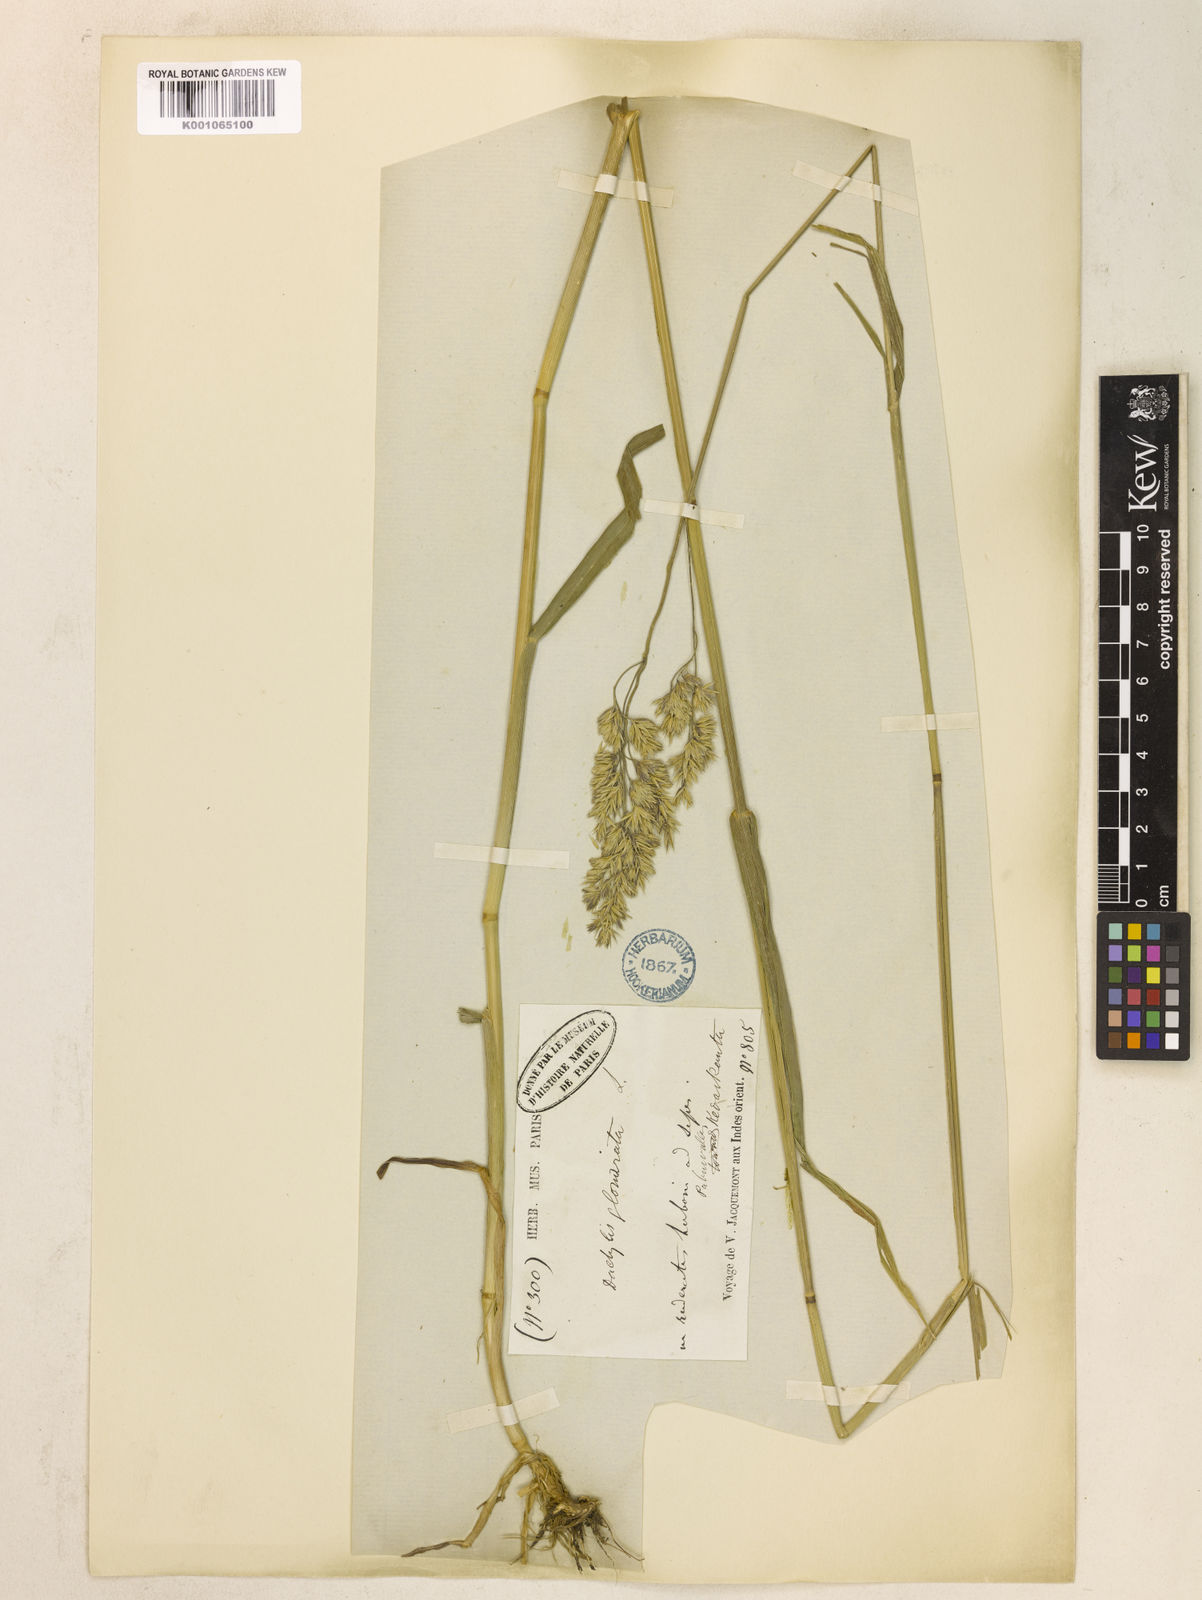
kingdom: Plantae
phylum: Tracheophyta
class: Liliopsida
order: Poales
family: Poaceae
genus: Dactylis
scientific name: Dactylis glomerata
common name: Orchardgrass
